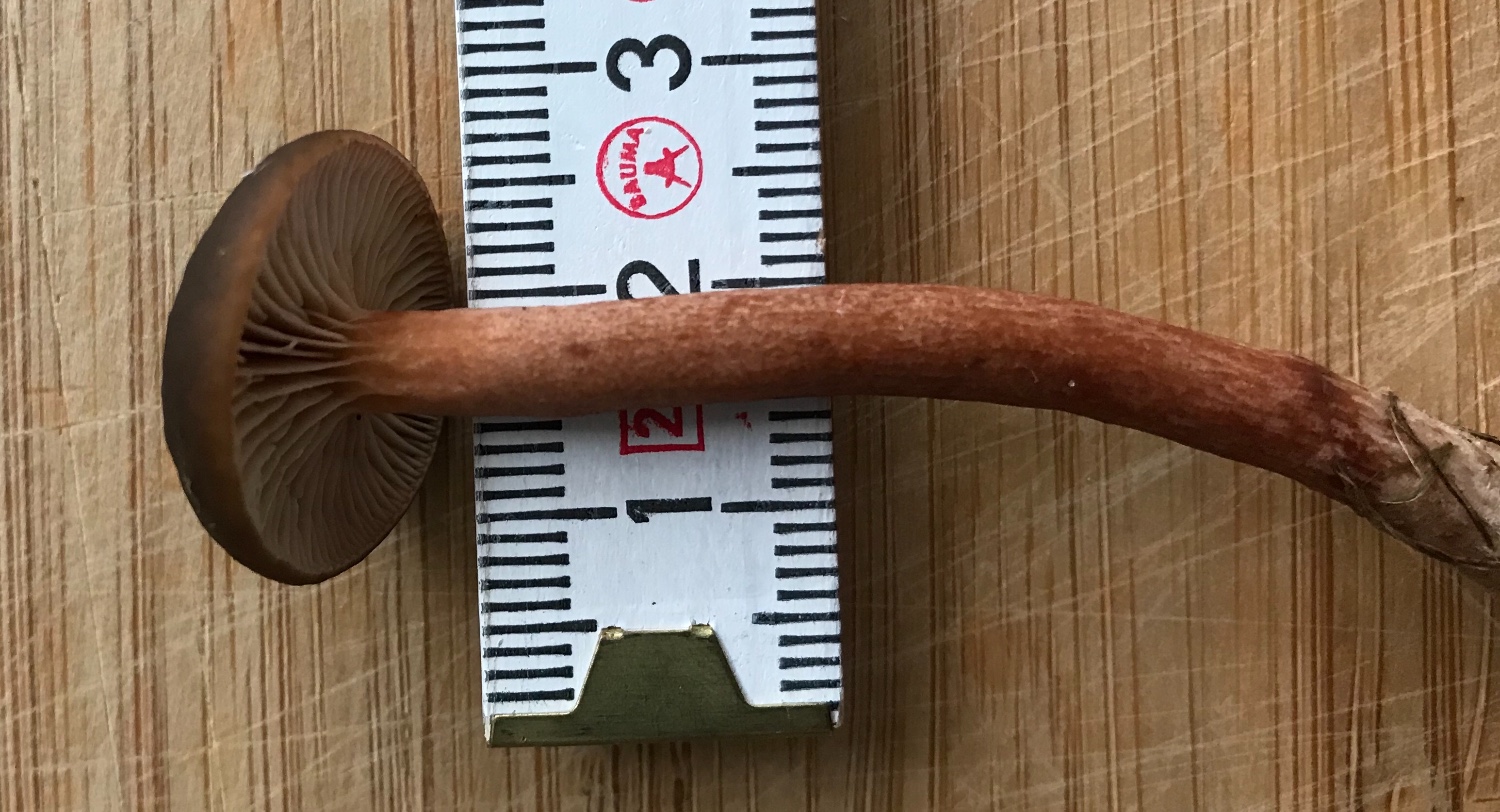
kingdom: Fungi
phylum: Basidiomycota
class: Agaricomycetes
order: Russulales
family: Russulaceae
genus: Lactarius
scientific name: Lactarius hepaticus
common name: leverbrun mælkehat
